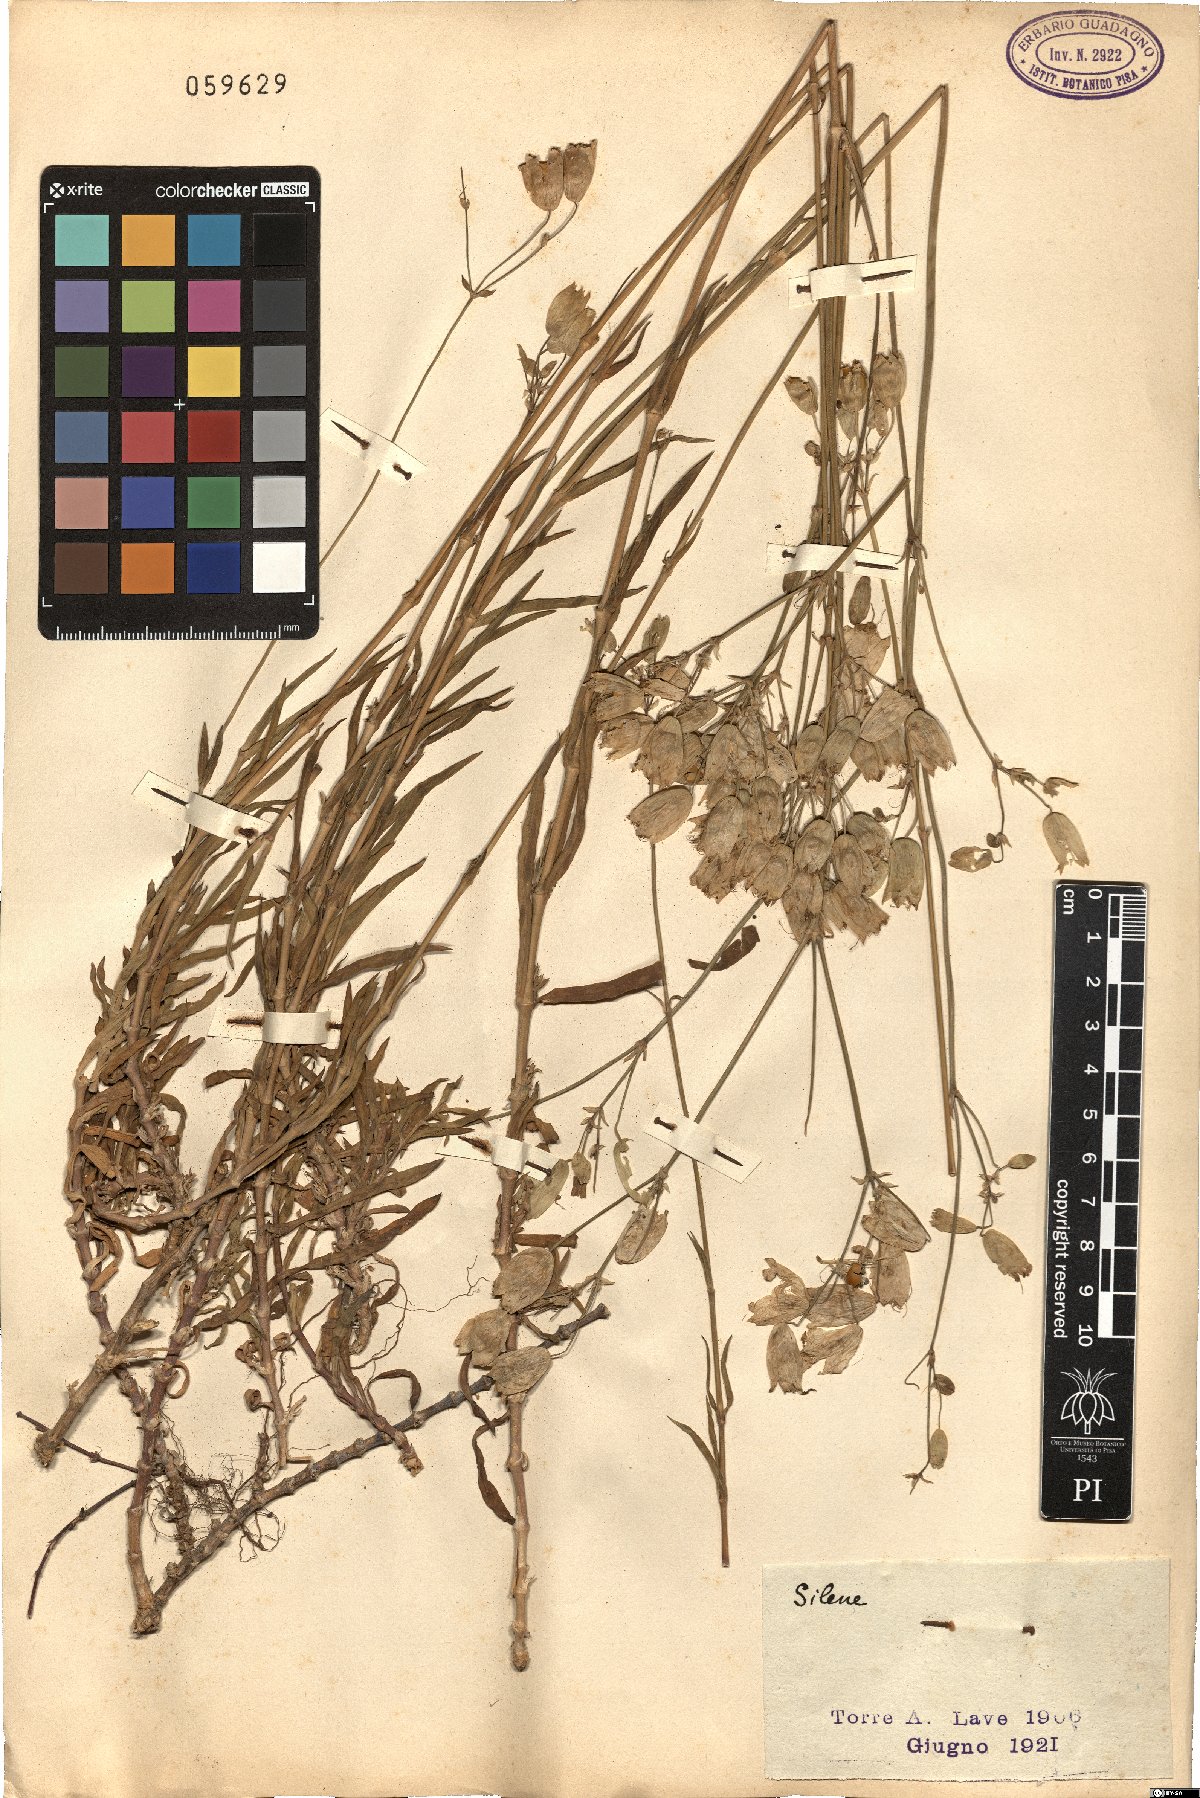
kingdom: Plantae
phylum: Tracheophyta
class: Magnoliopsida
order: Caryophyllales
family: Caryophyllaceae
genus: Silene
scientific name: Silene
